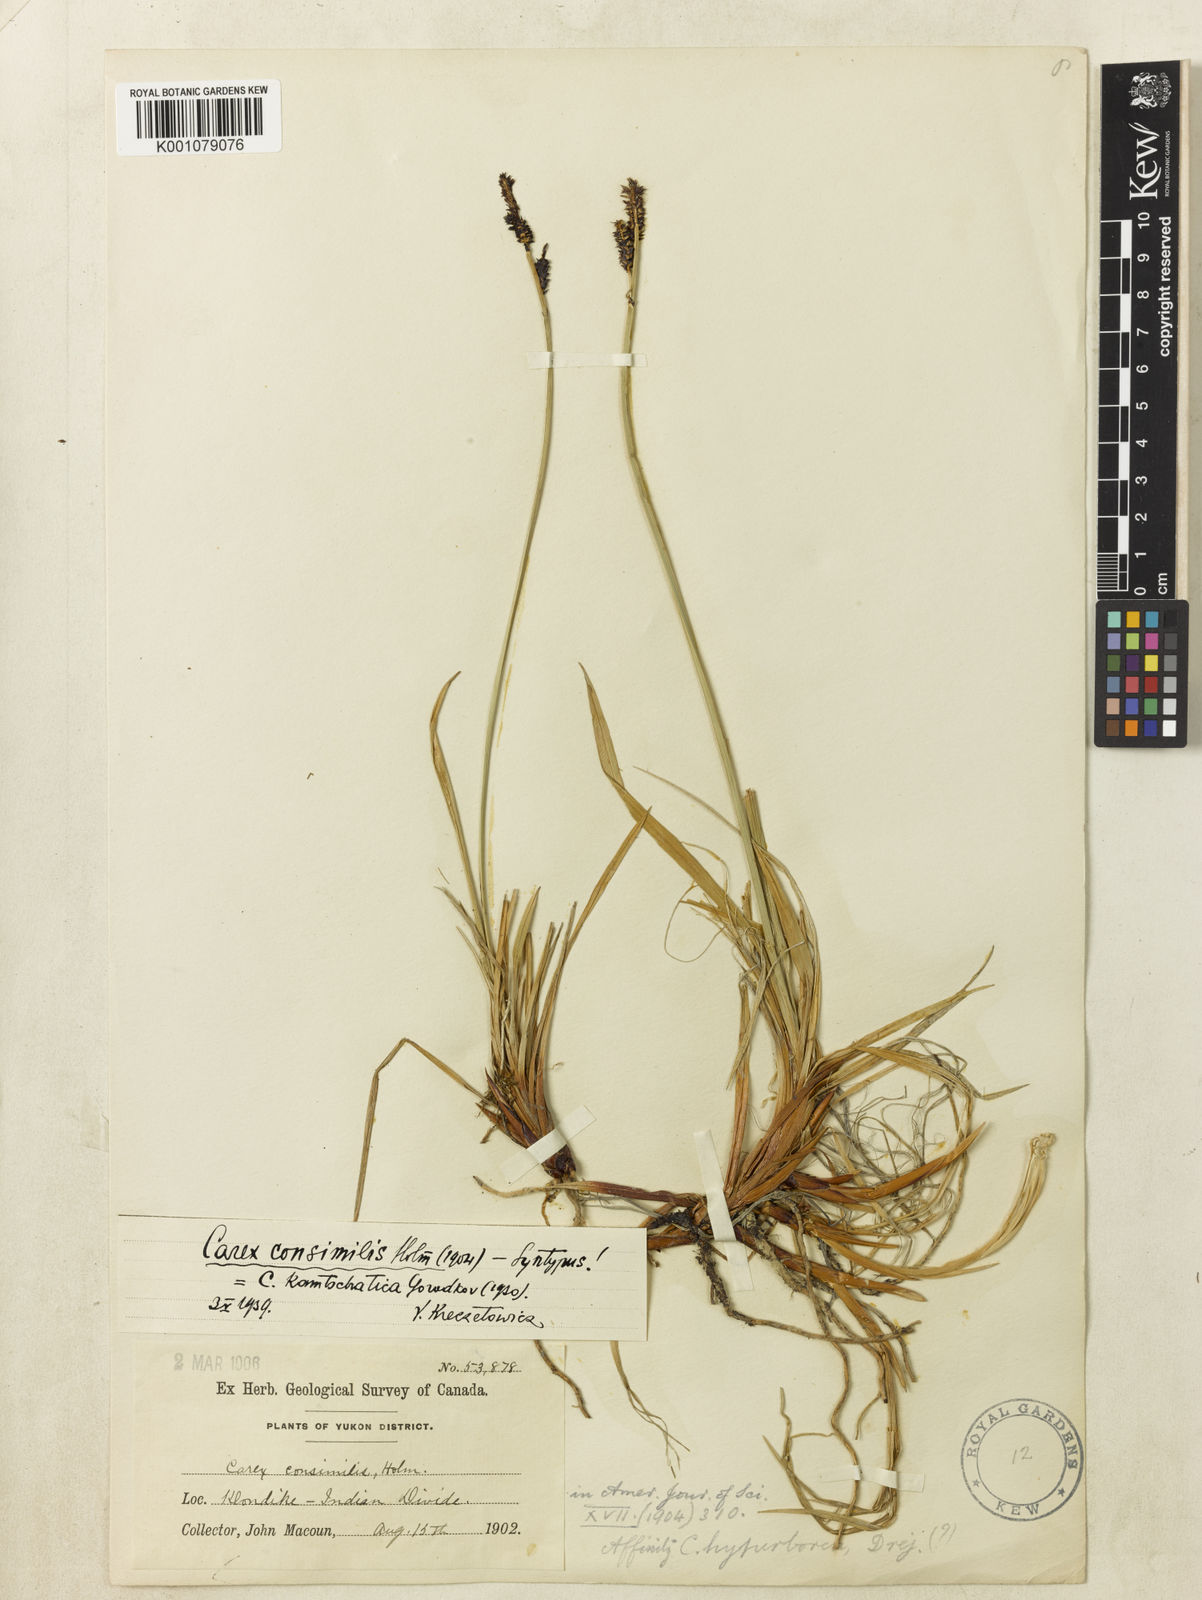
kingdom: Plantae
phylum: Tracheophyta
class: Liliopsida
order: Poales
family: Cyperaceae
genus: Carex
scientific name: Carex bigelowii
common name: Stiff sedge
